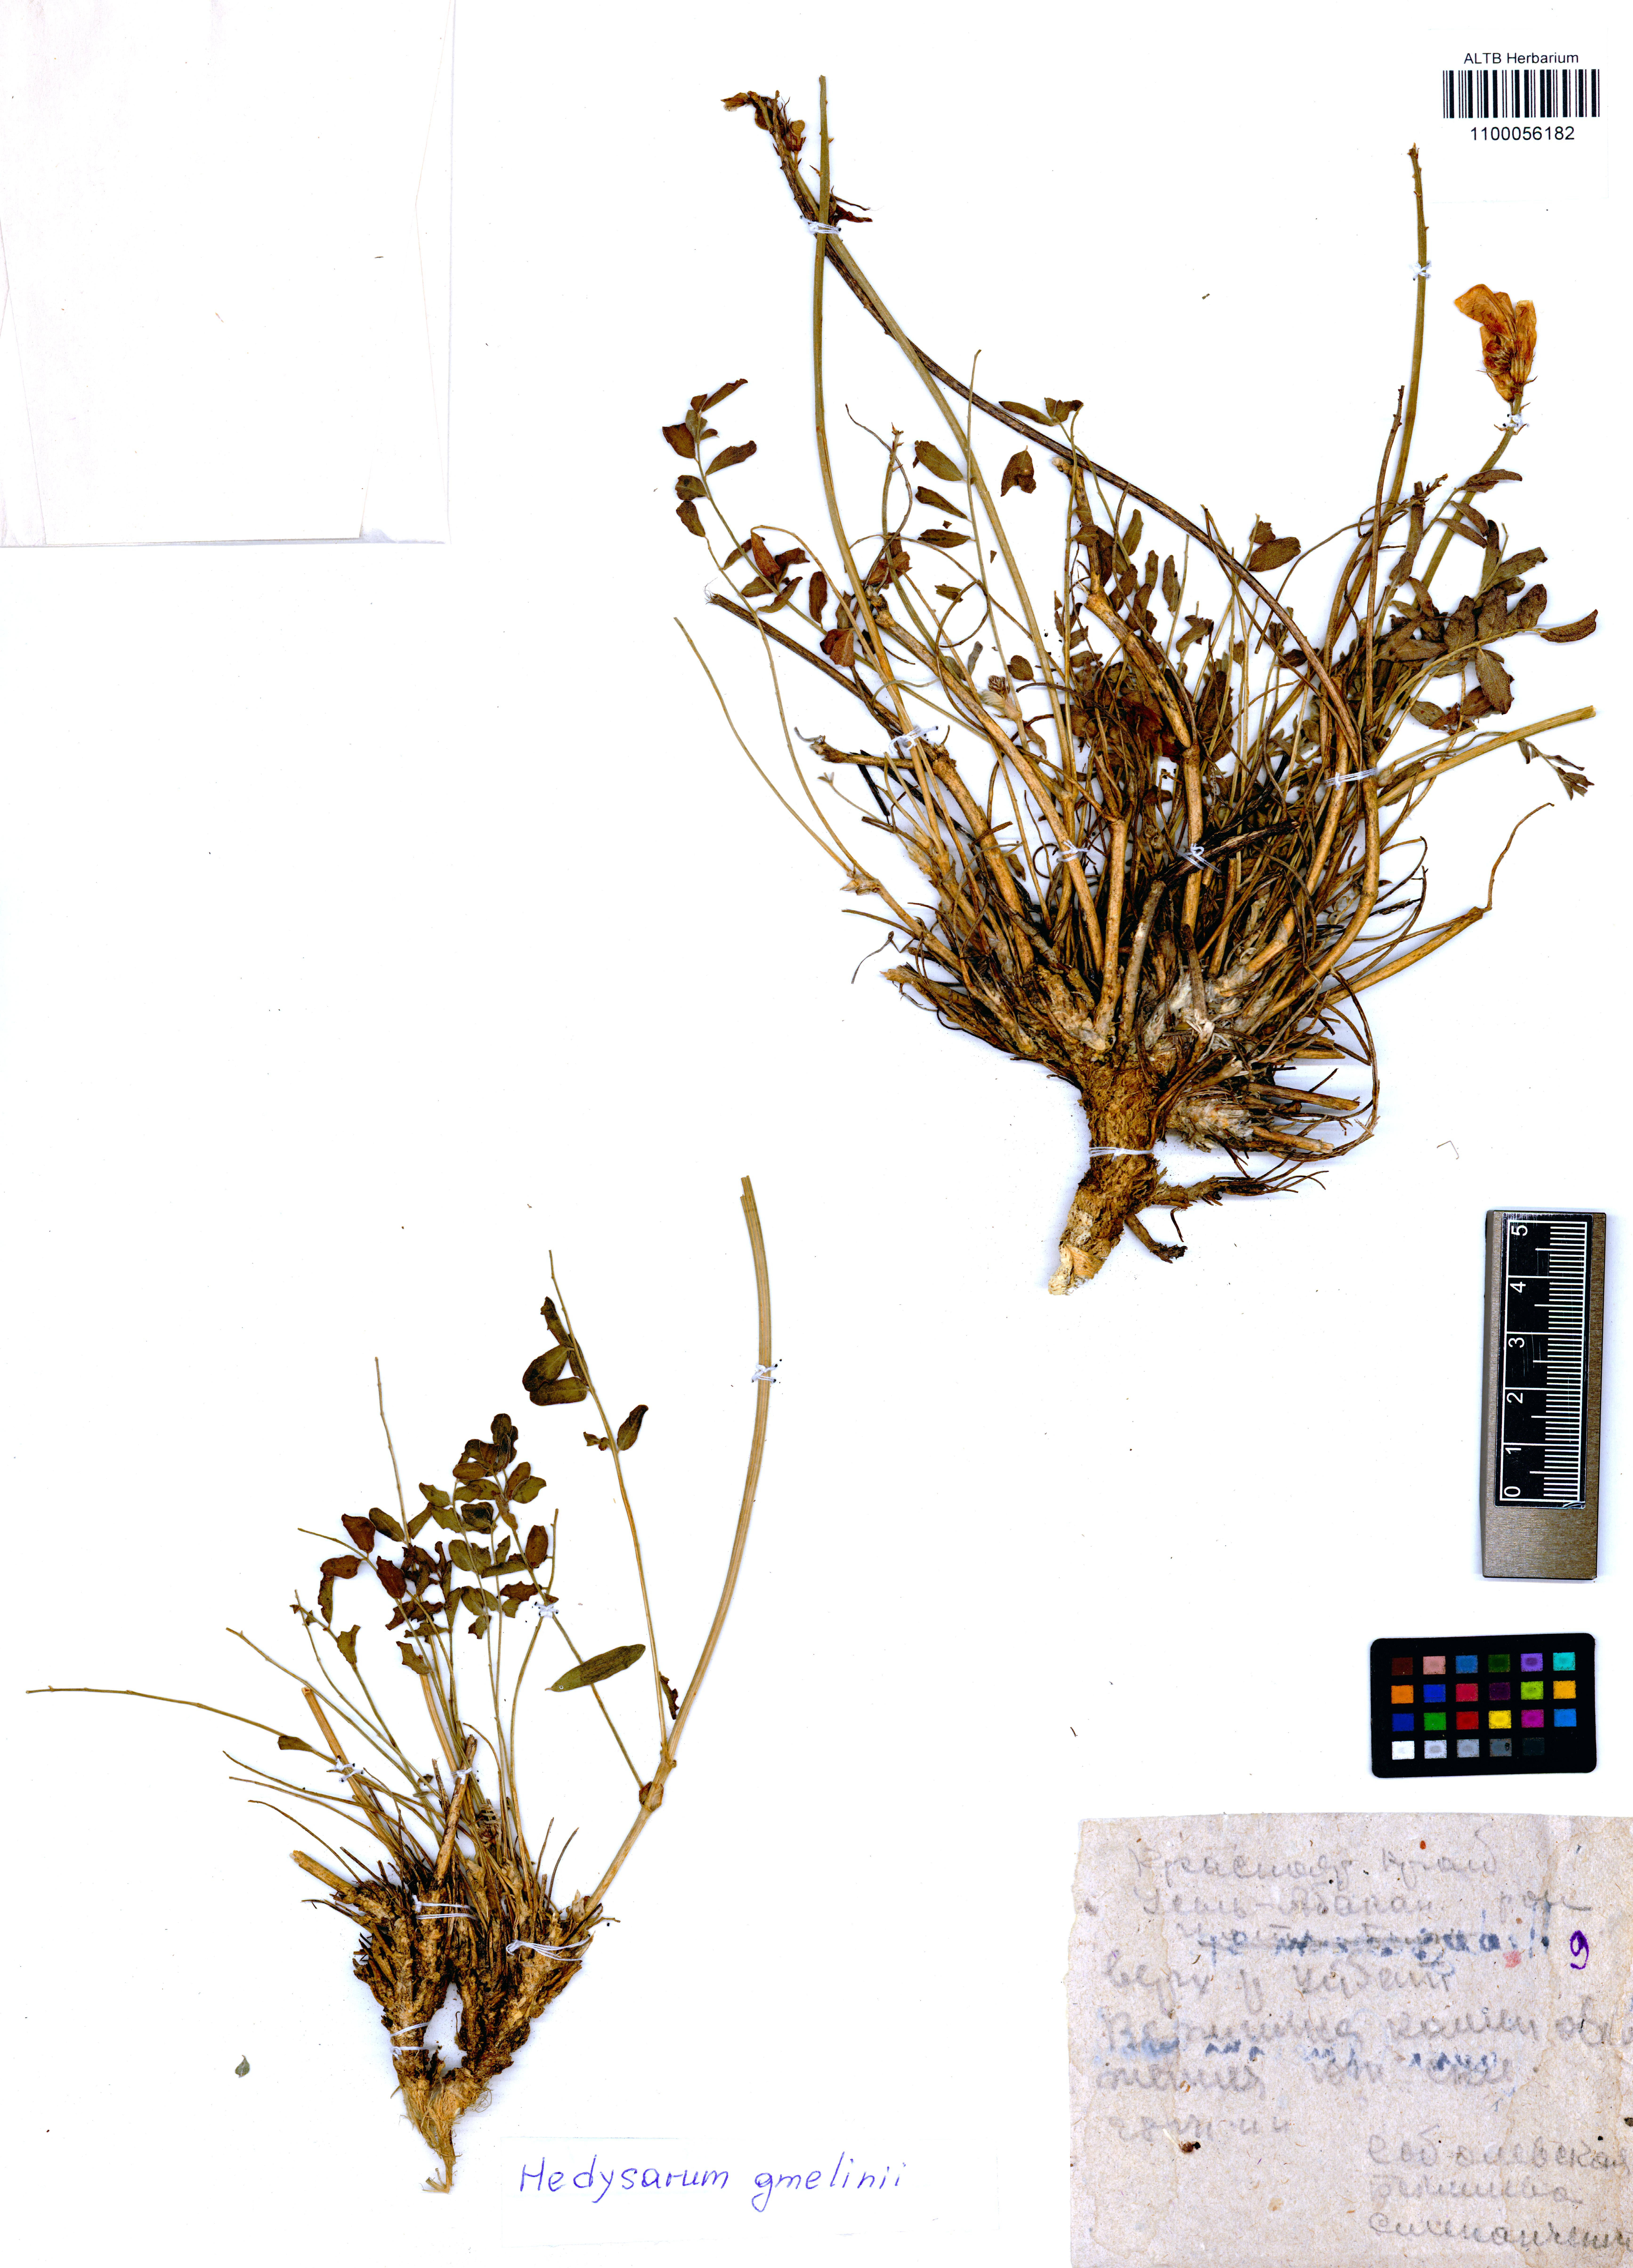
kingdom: Plantae
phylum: Tracheophyta
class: Magnoliopsida
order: Fabales
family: Fabaceae
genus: Hedysarum
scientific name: Hedysarum gmelinii
